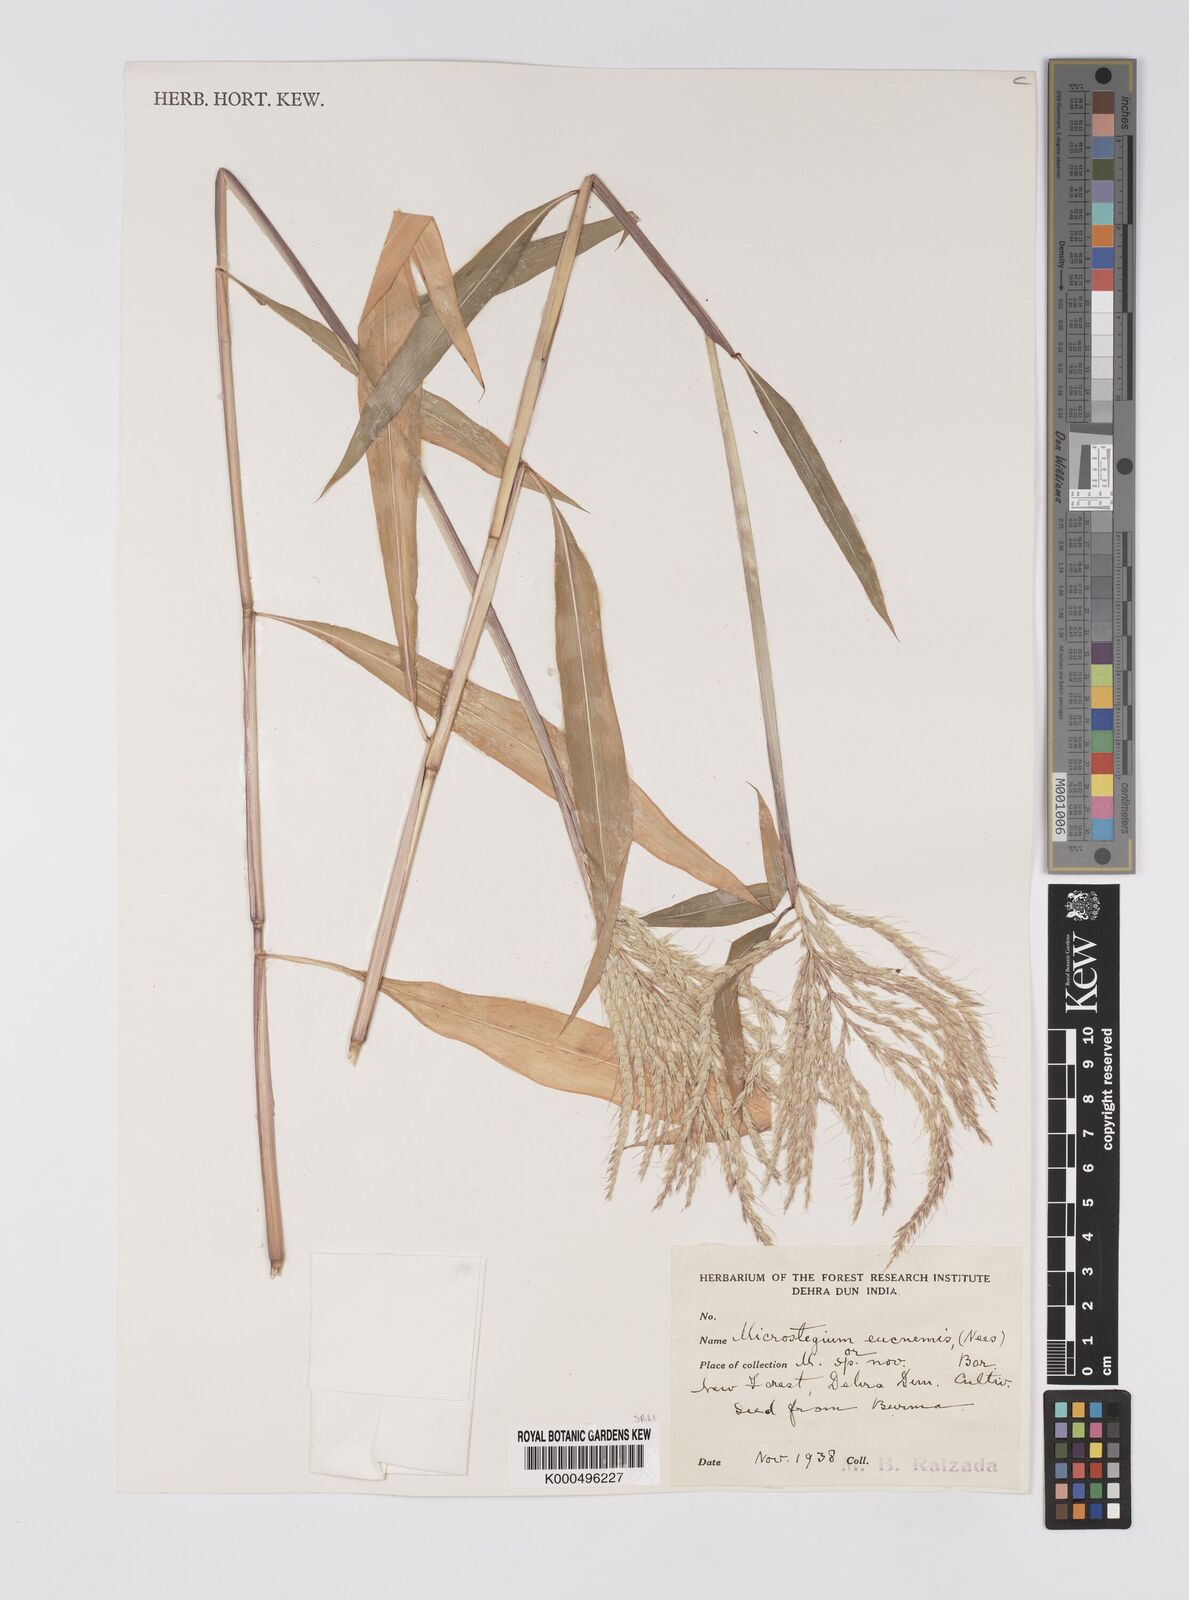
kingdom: Plantae
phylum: Tracheophyta
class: Liliopsida
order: Poales
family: Poaceae
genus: Microstegium
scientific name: Microstegium eucnemis
